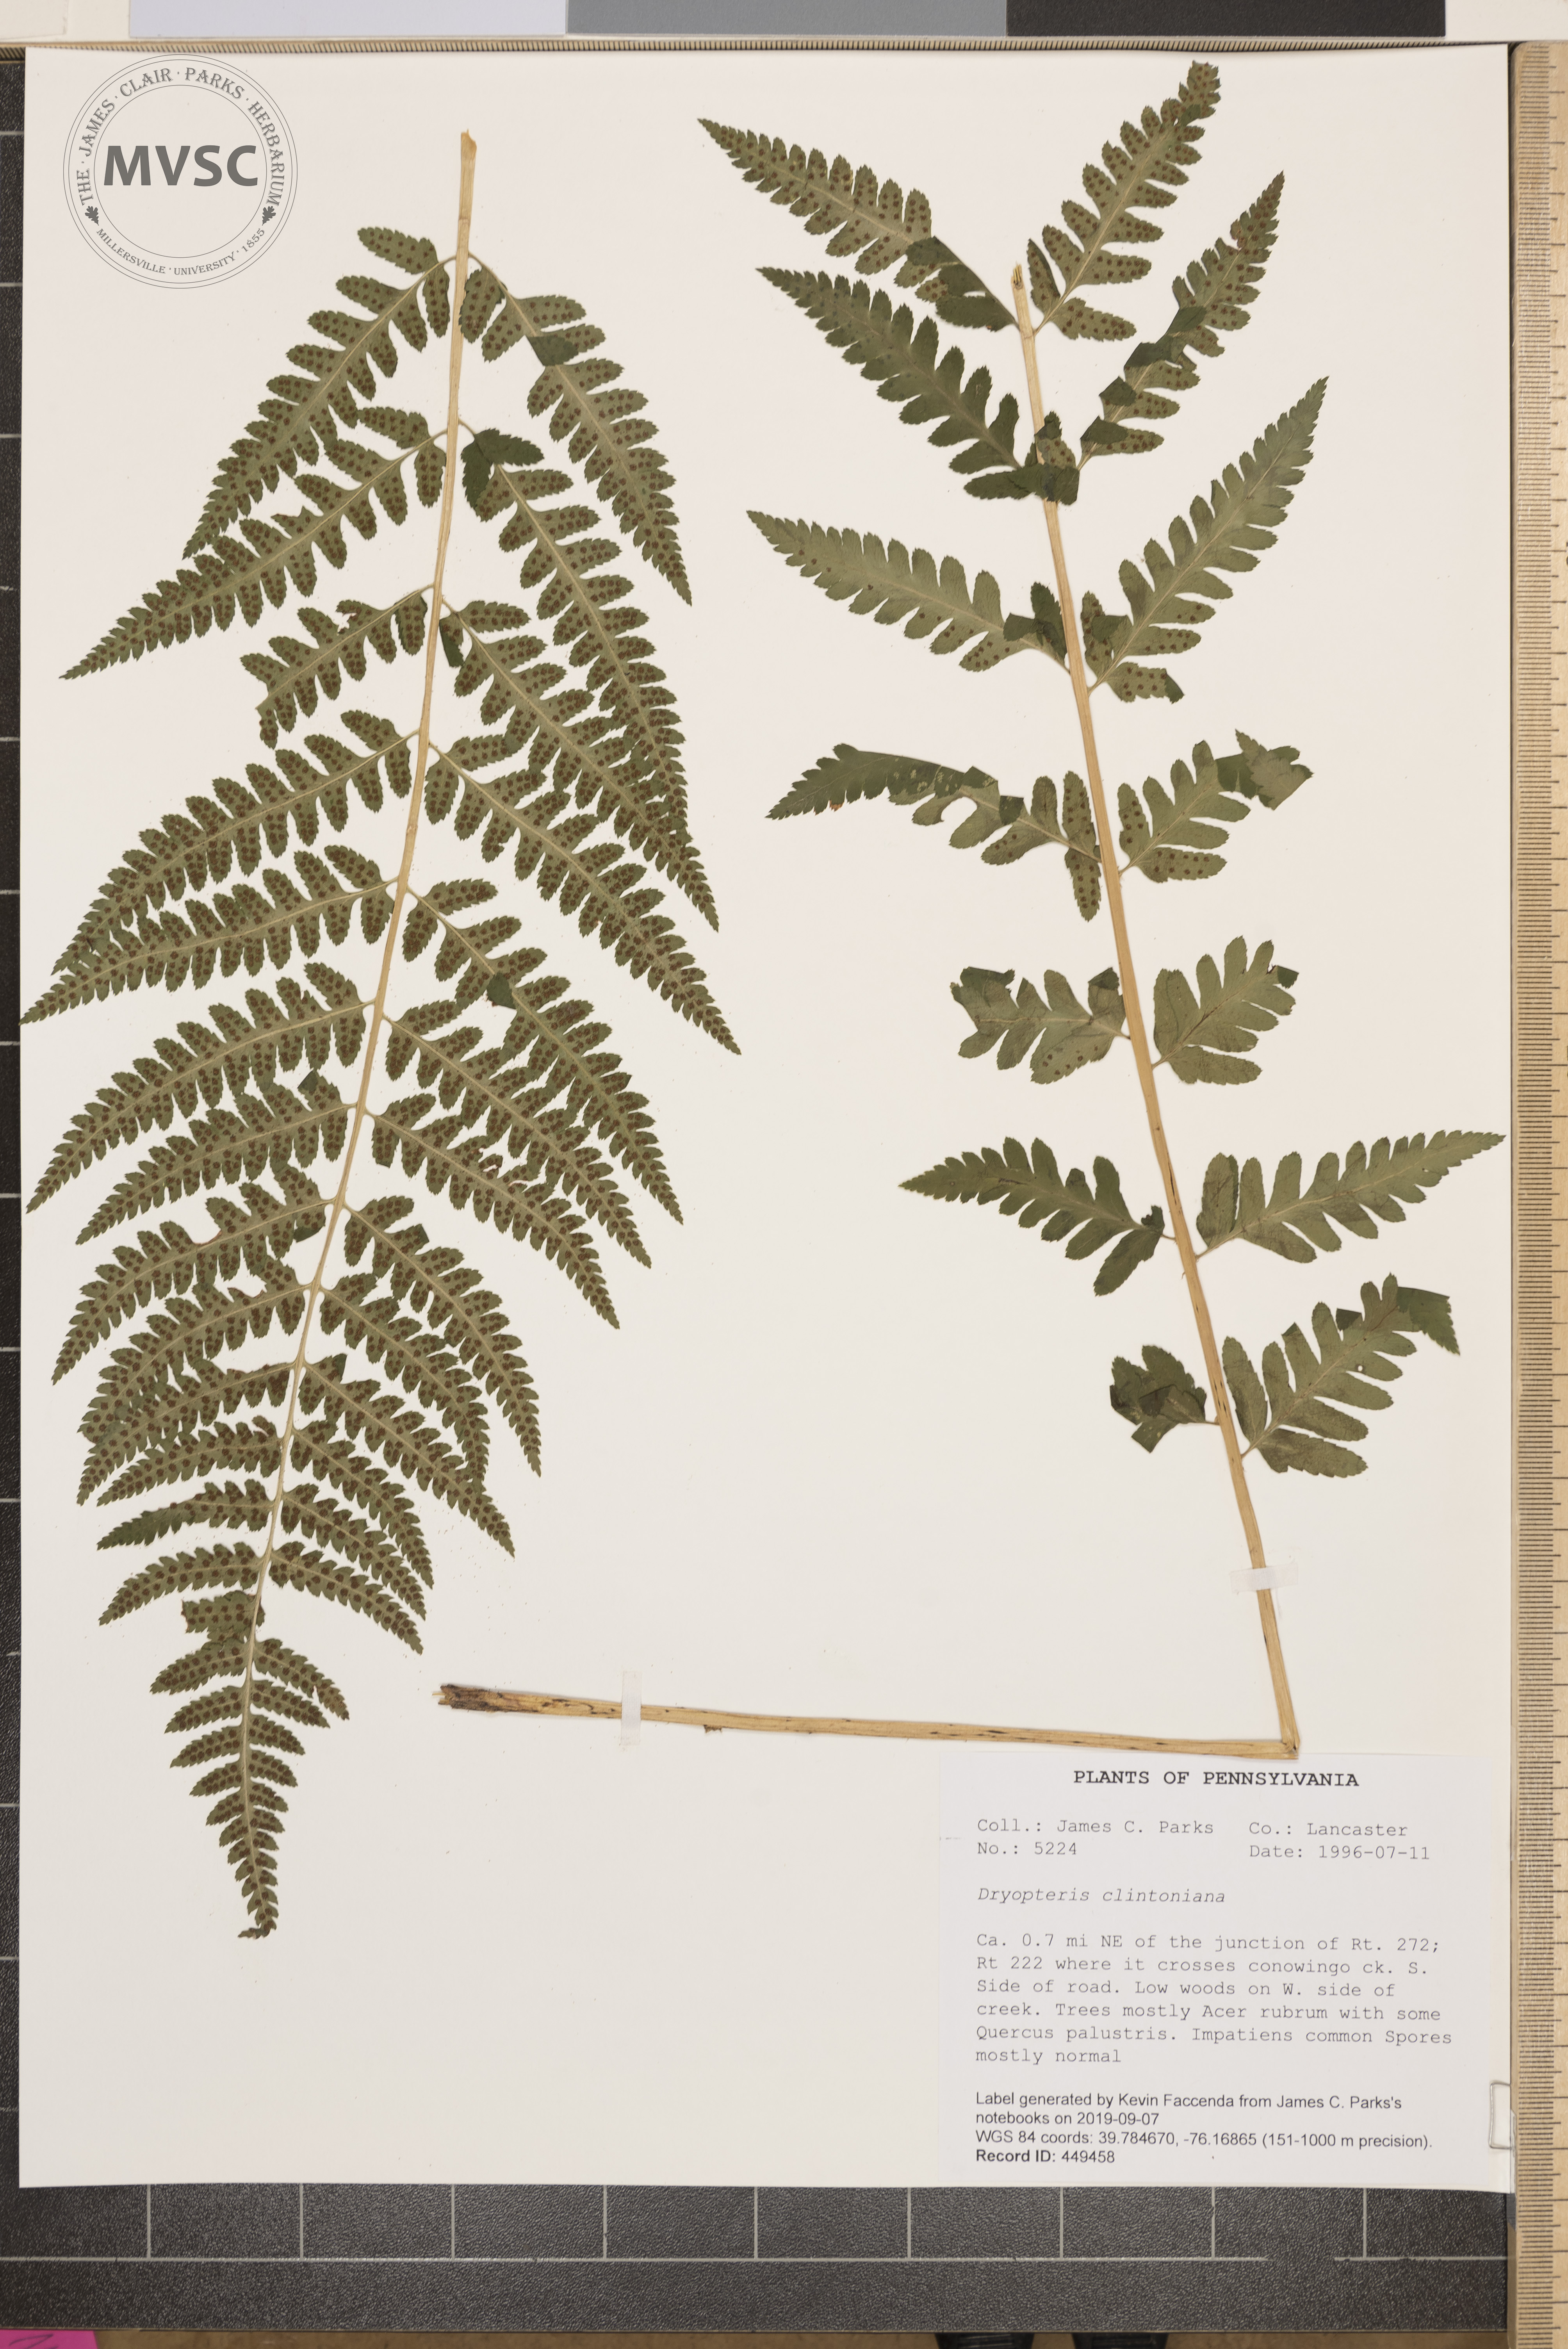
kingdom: Plantae
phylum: Tracheophyta
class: Polypodiopsida
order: Polypodiales
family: Dryopteridaceae
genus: Dryopteris
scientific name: Dryopteris clintoniana
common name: Clinton's wood fern
